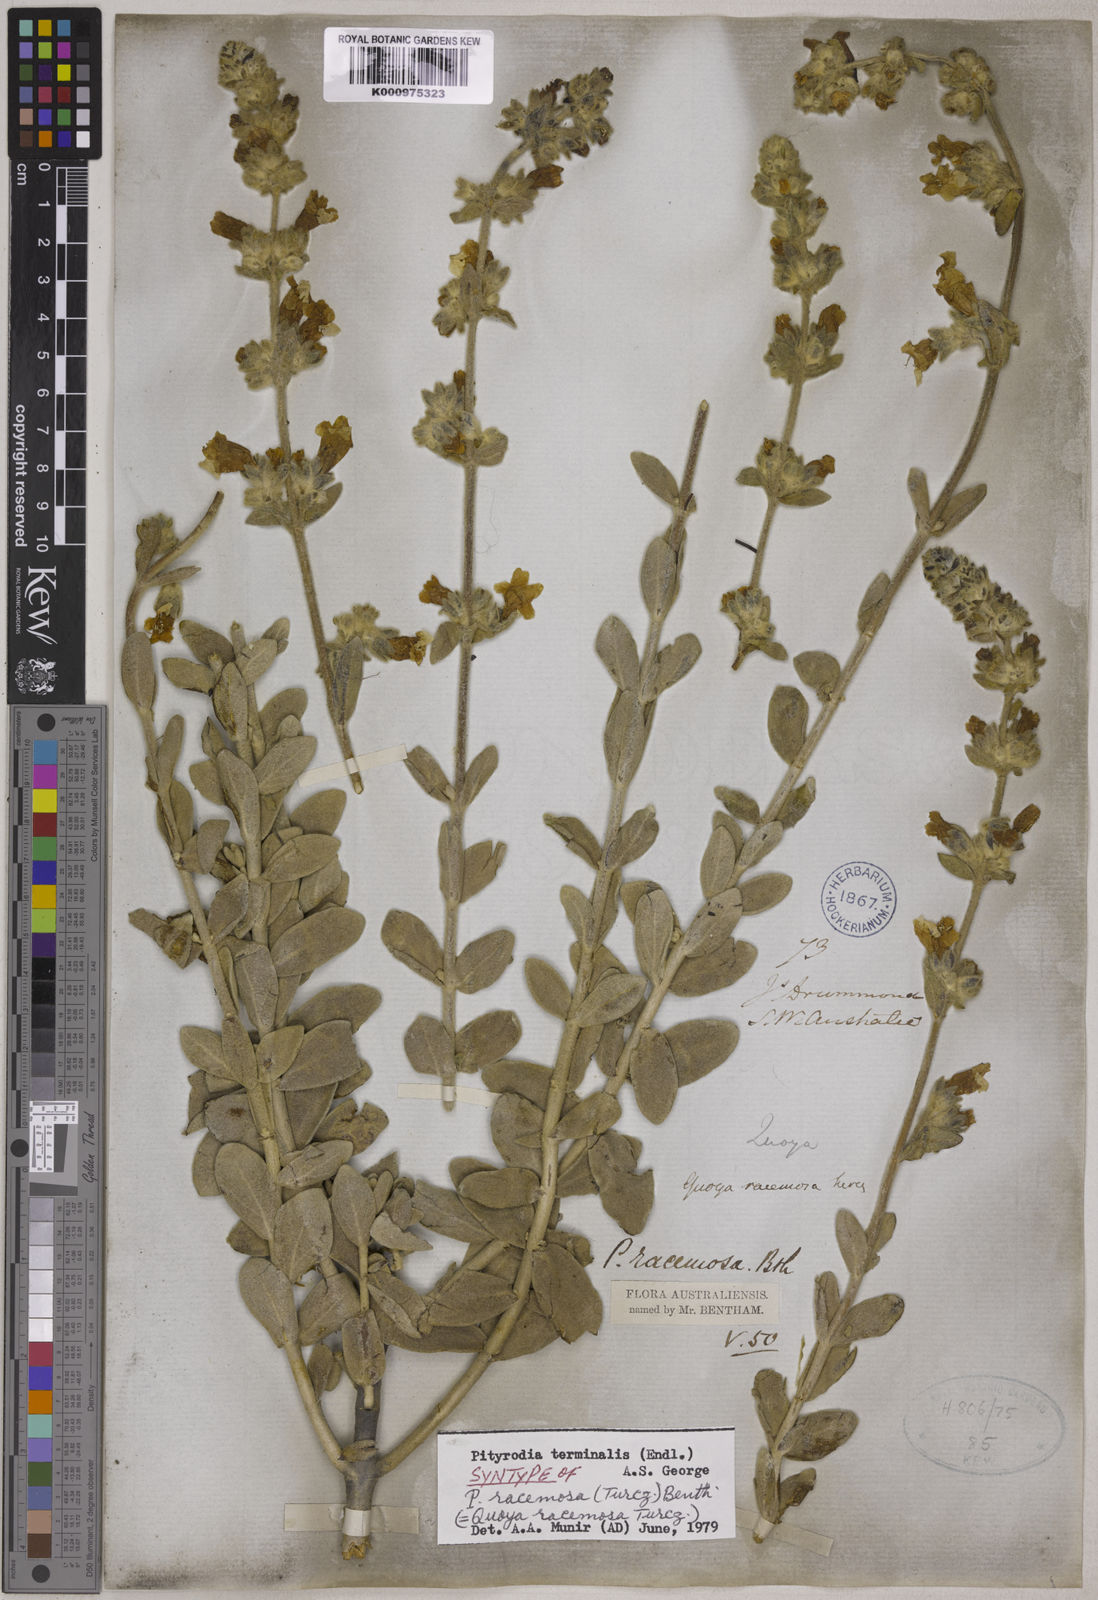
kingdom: Plantae
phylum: Tracheophyta
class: Magnoliopsida
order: Lamiales
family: Lamiaceae
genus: Dasymalla
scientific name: Dasymalla terminalis
